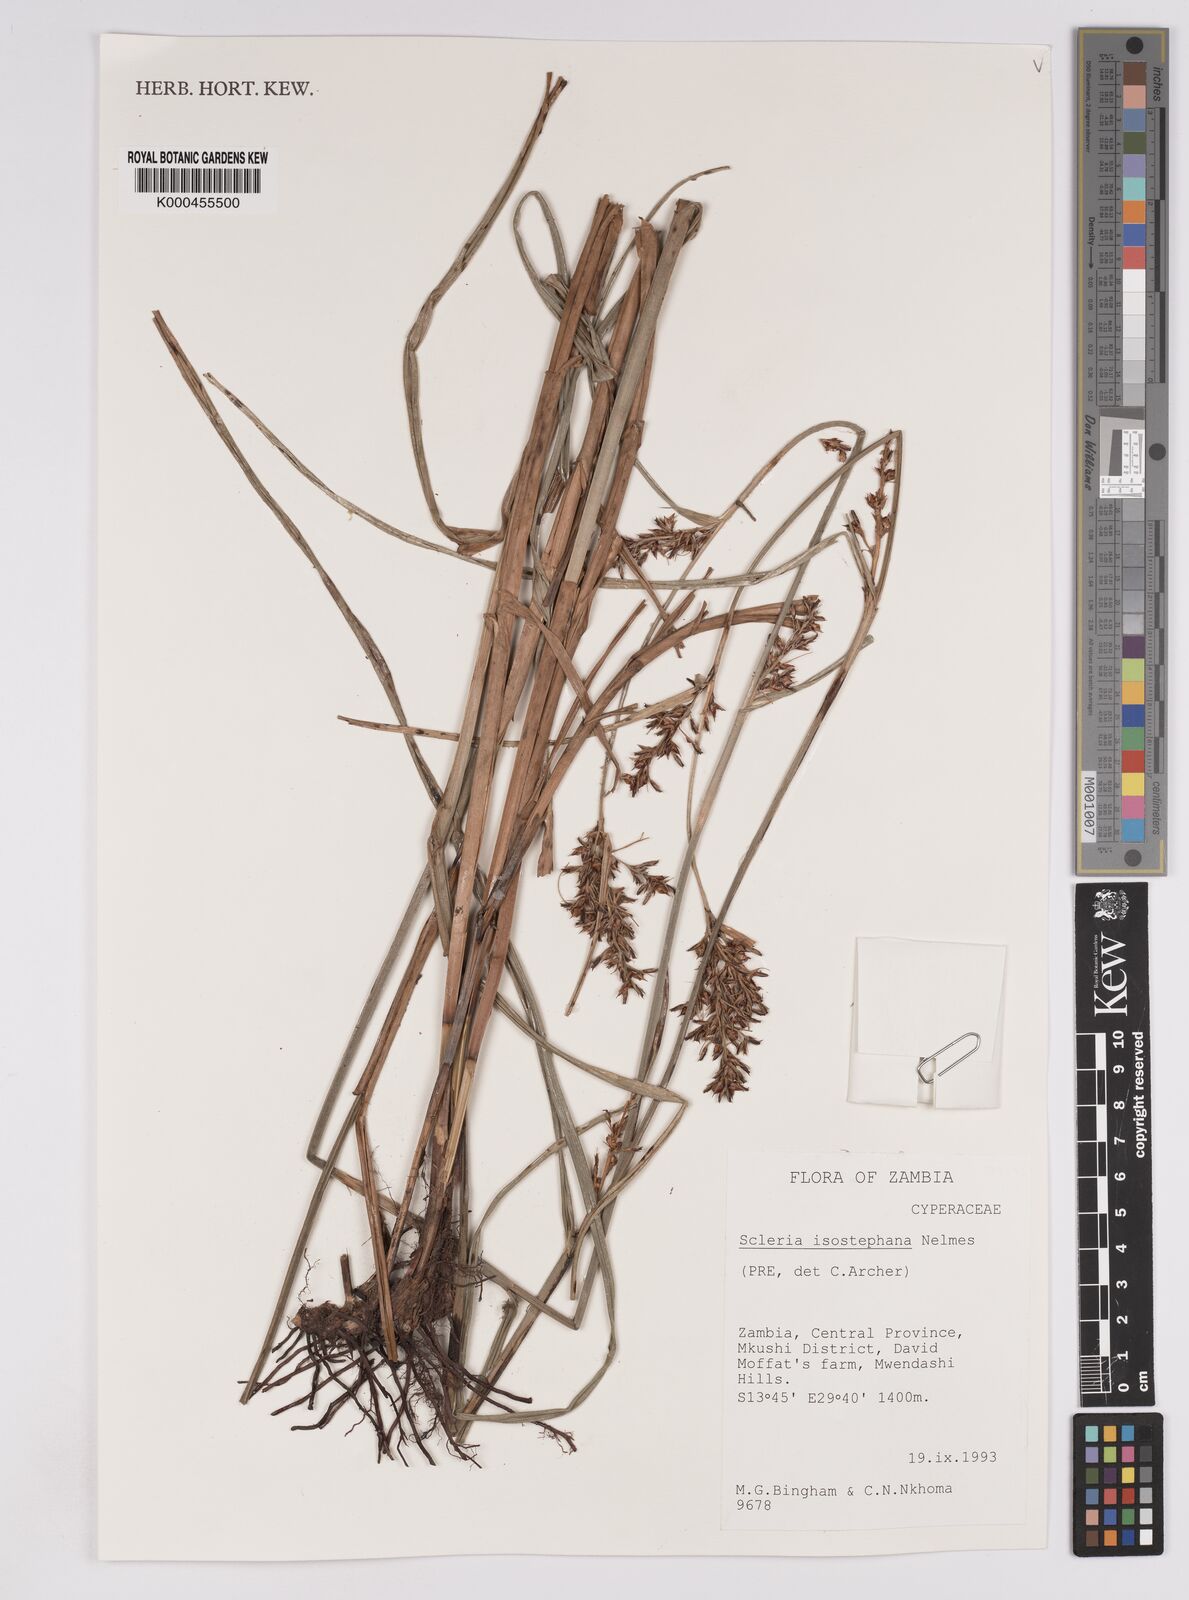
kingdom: Plantae
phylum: Tracheophyta
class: Liliopsida
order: Poales
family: Cyperaceae
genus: Scleria
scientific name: Scleria iostephana
